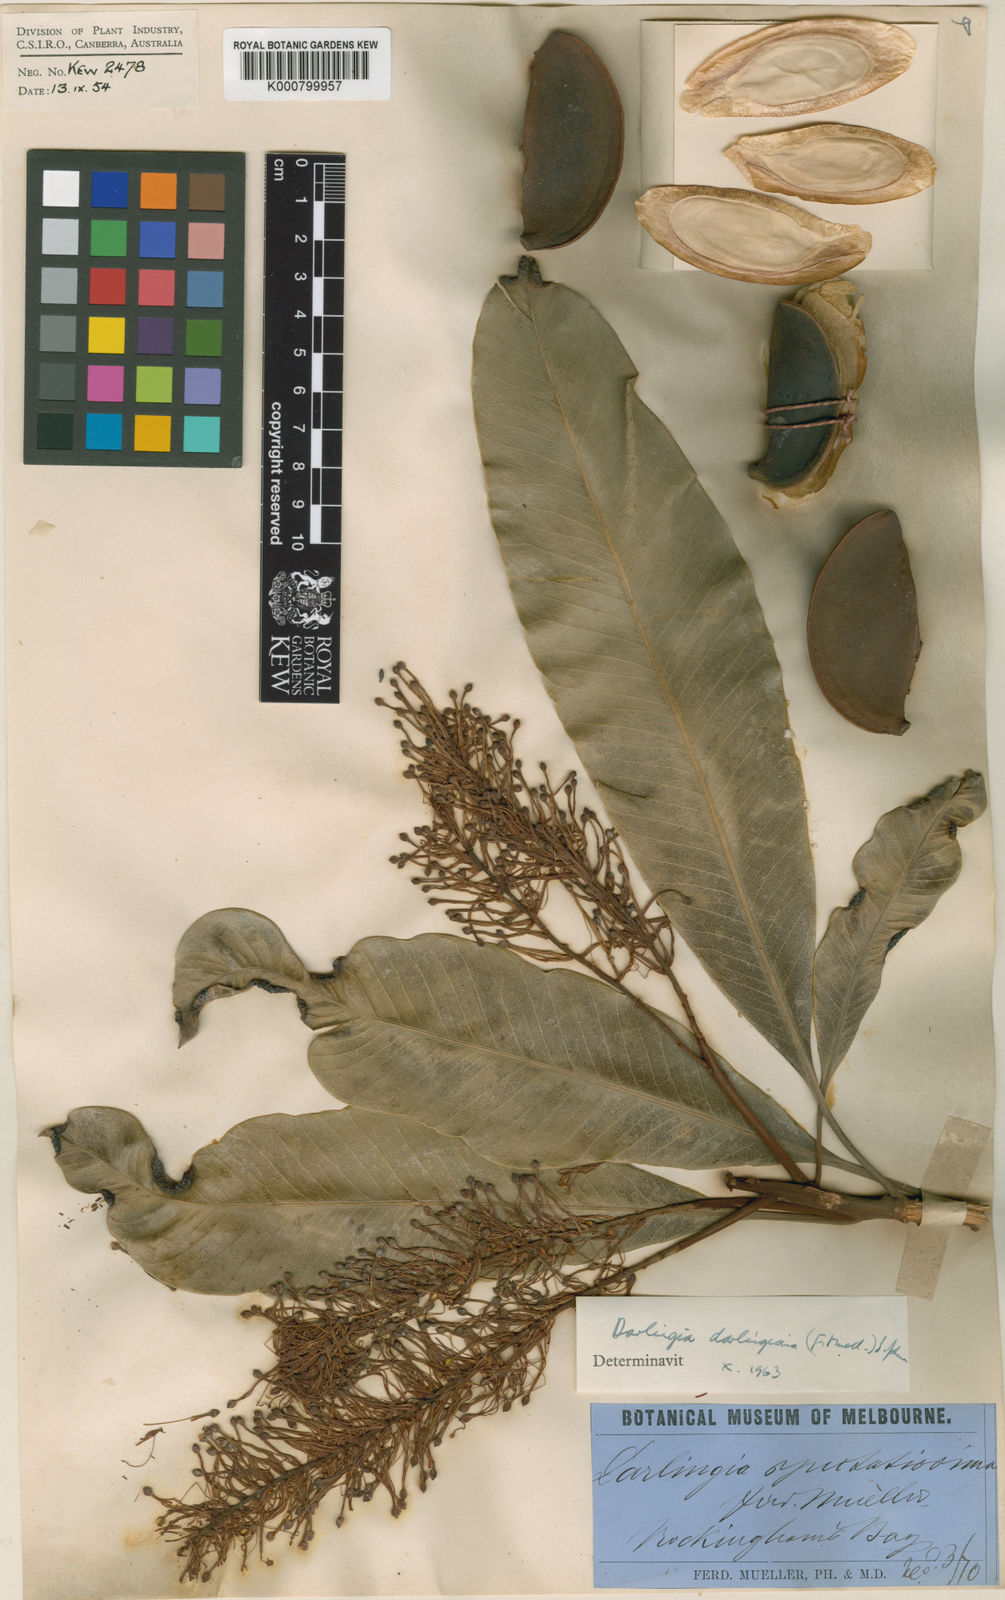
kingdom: Plantae
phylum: Tracheophyta
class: Magnoliopsida
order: Proteales
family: Proteaceae
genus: Darlingia
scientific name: Darlingia darlingiana
